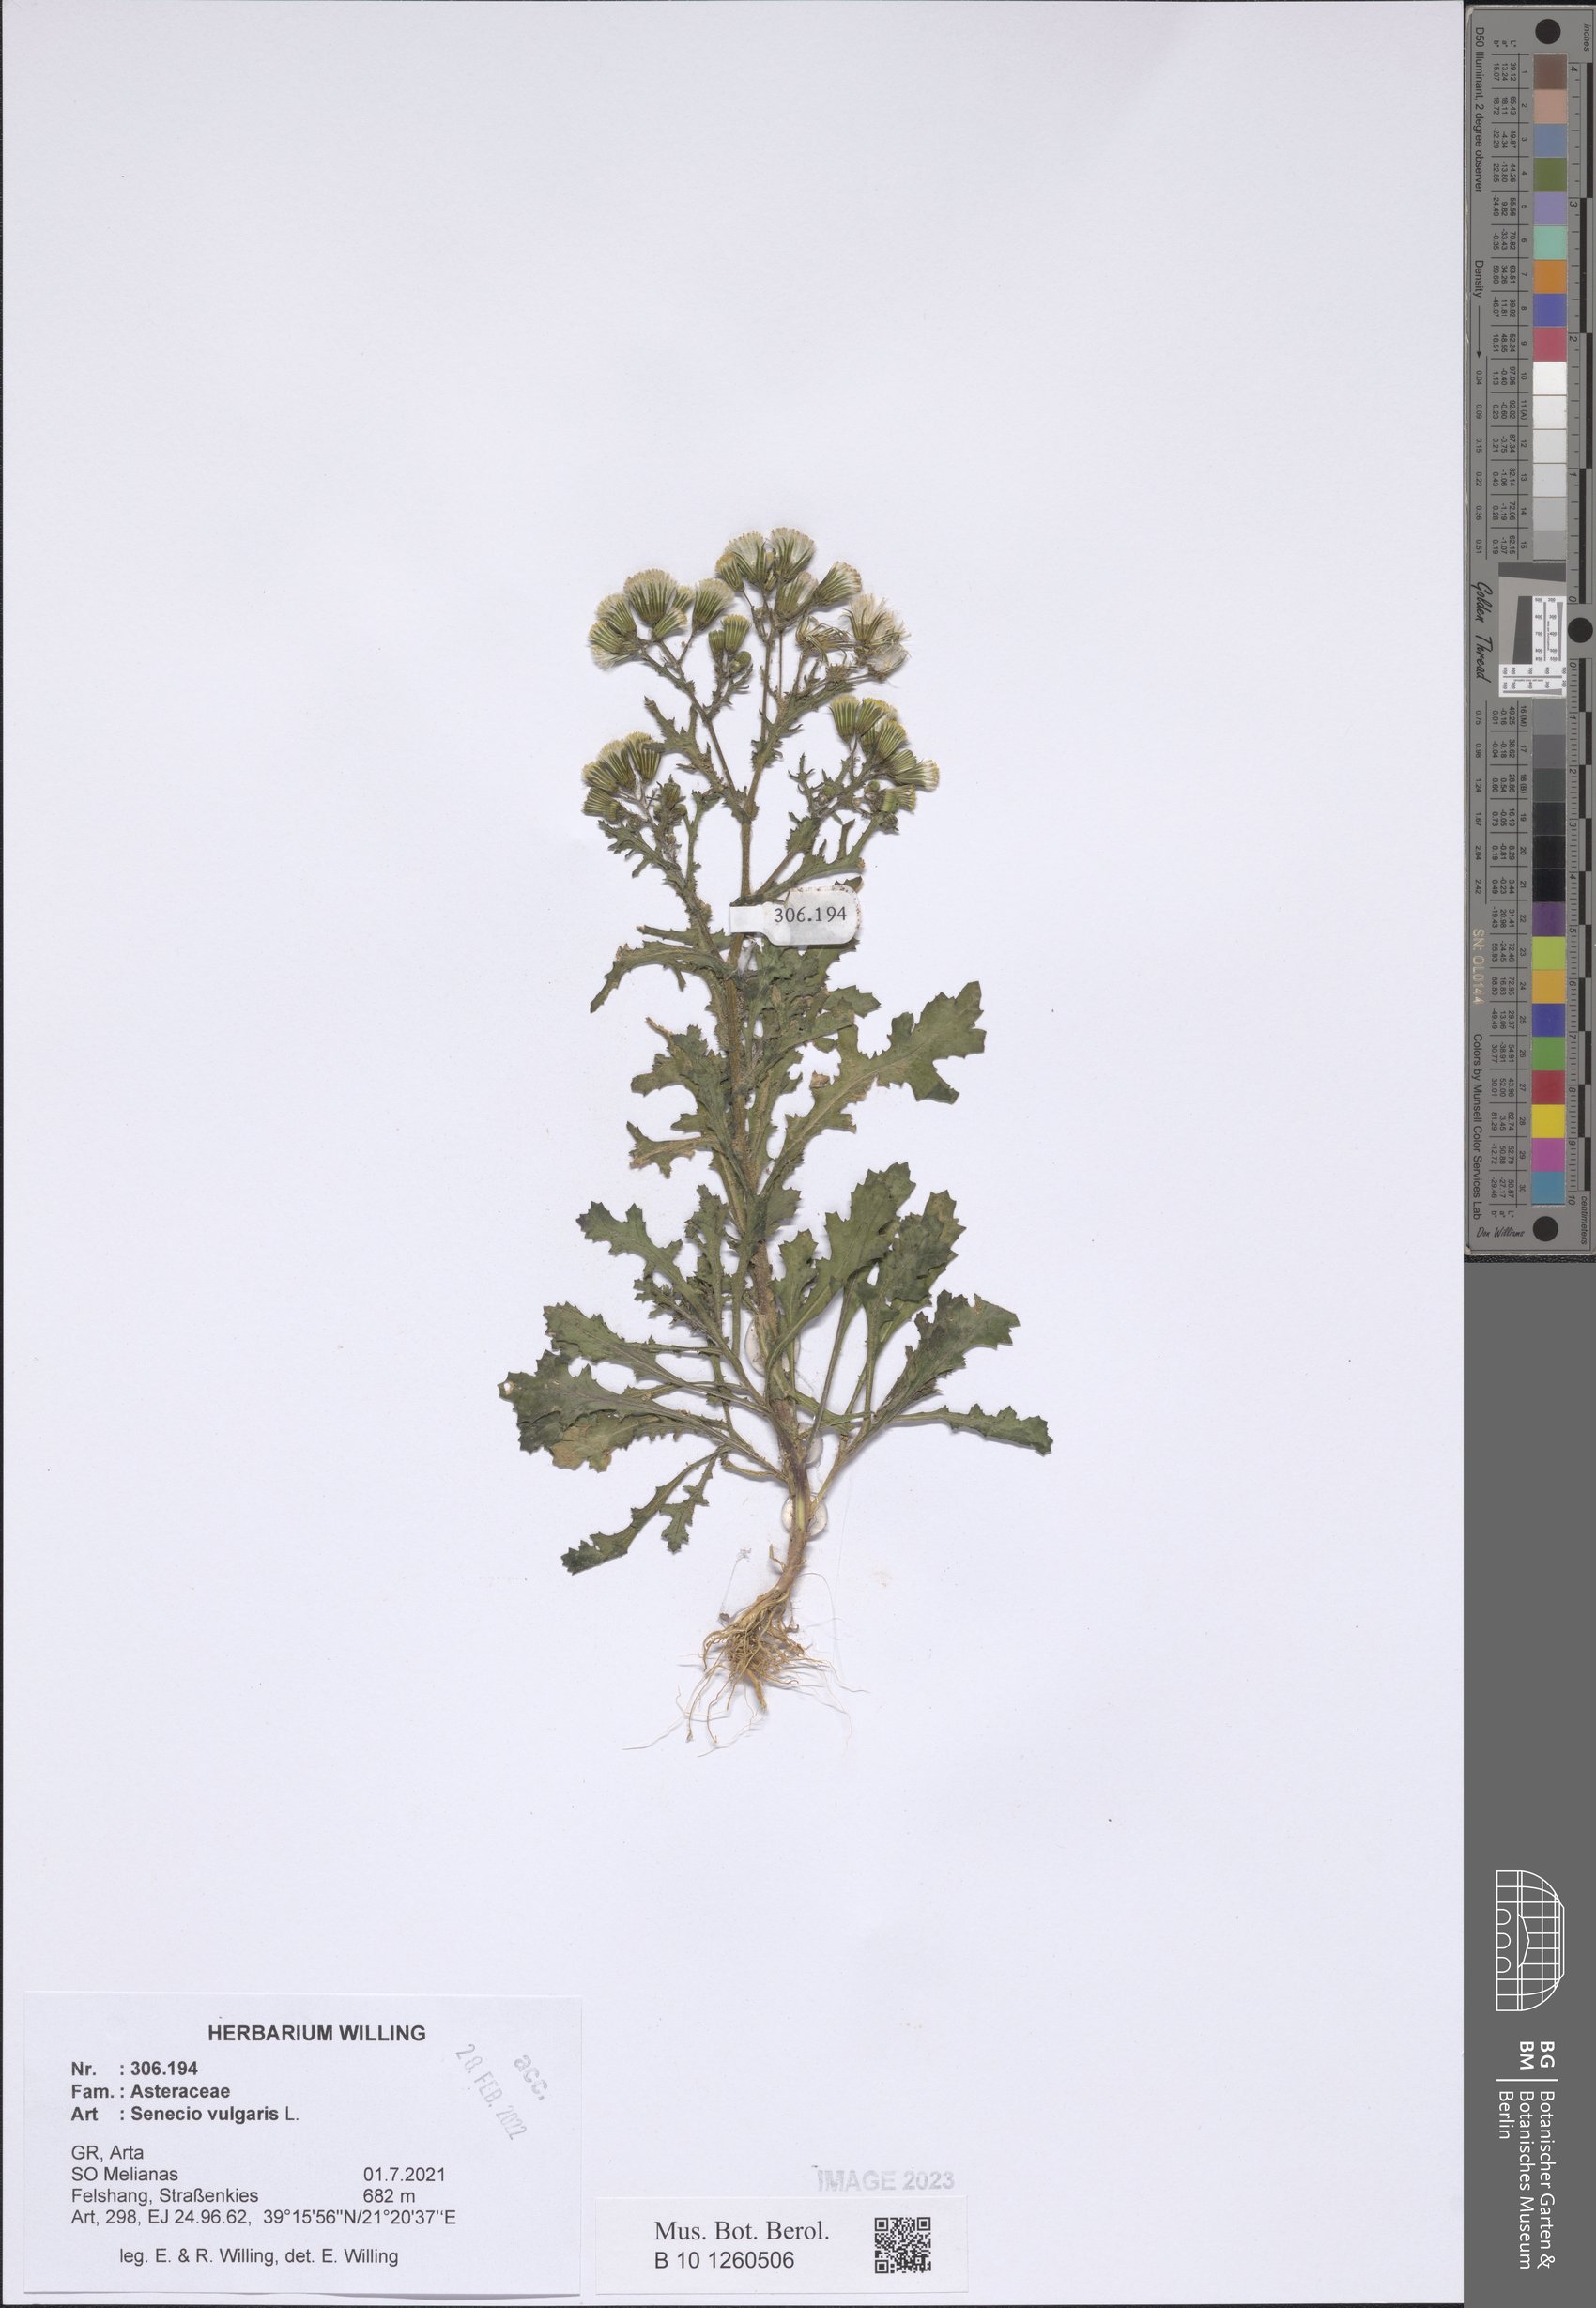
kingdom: Plantae
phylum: Tracheophyta
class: Magnoliopsida
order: Asterales
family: Asteraceae
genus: Senecio
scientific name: Senecio vulgaris
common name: Old-man-in-the-spring
